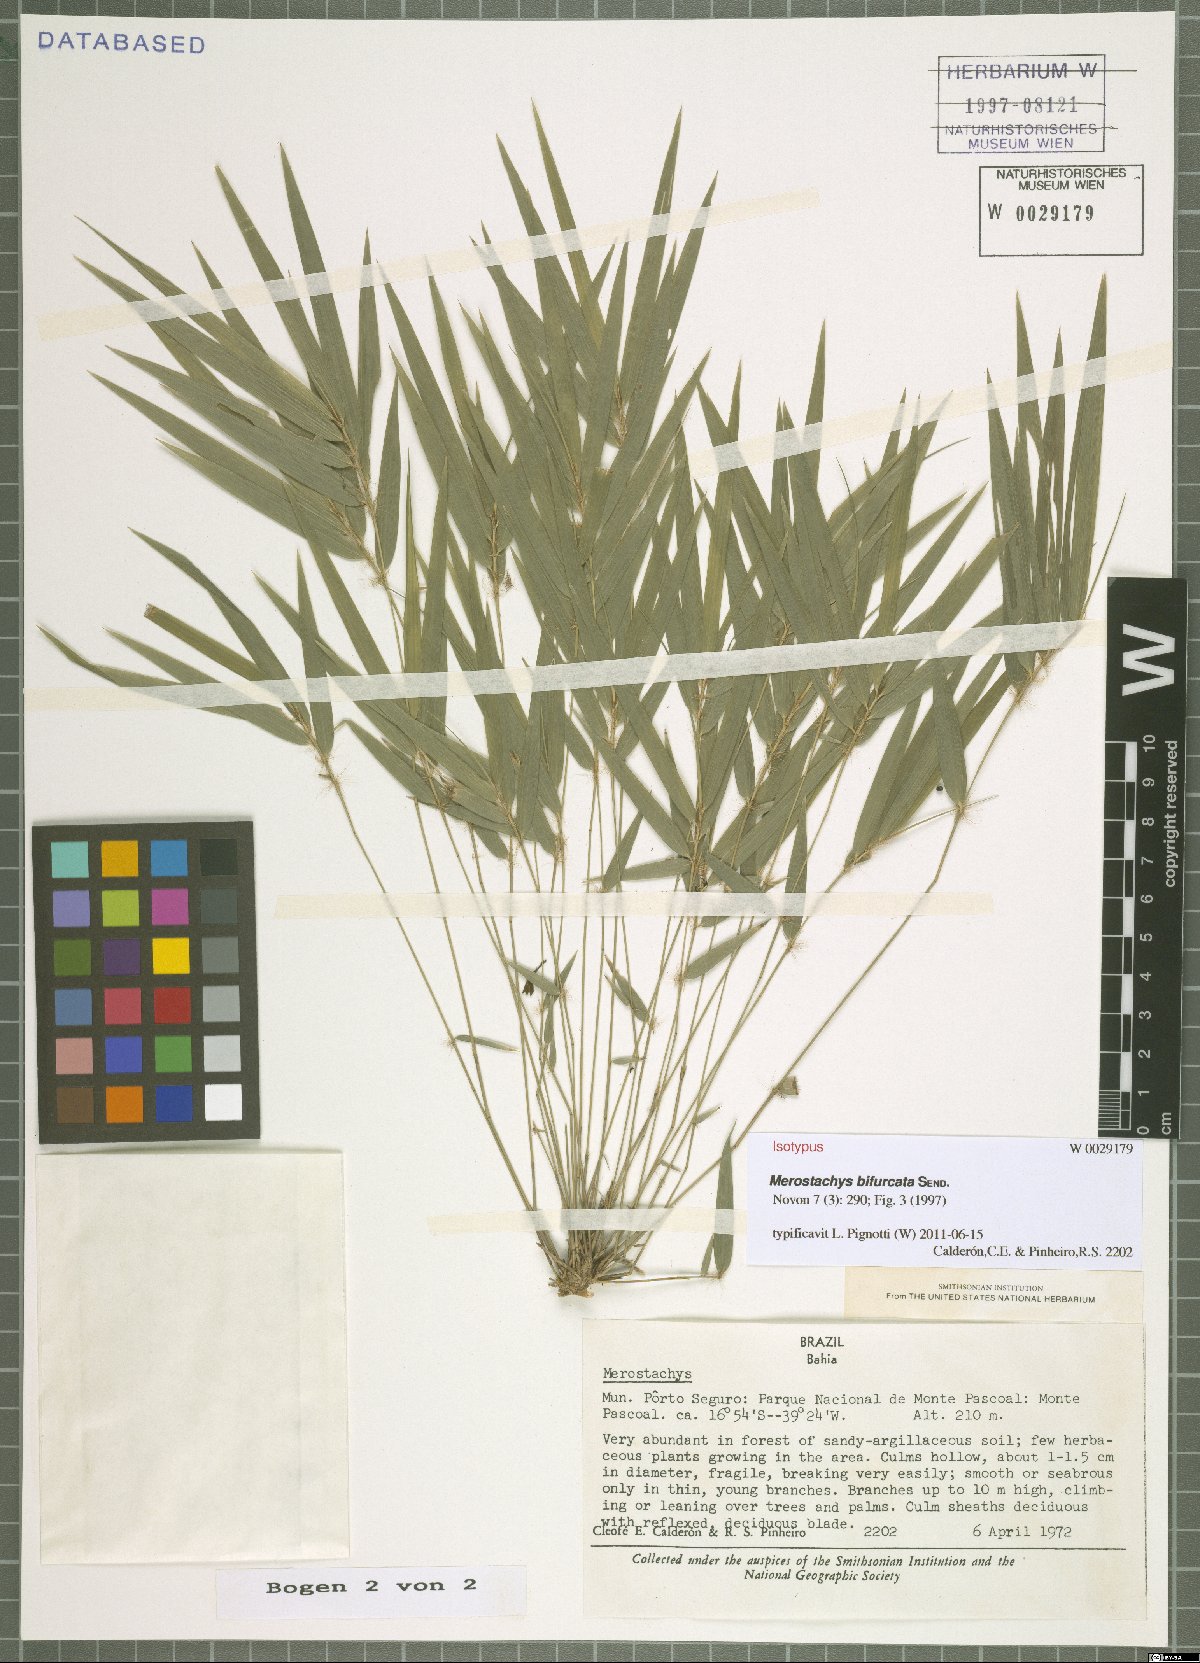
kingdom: Plantae
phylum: Tracheophyta
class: Liliopsida
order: Poales
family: Poaceae
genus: Merostachys
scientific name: Merostachys bifurcata
